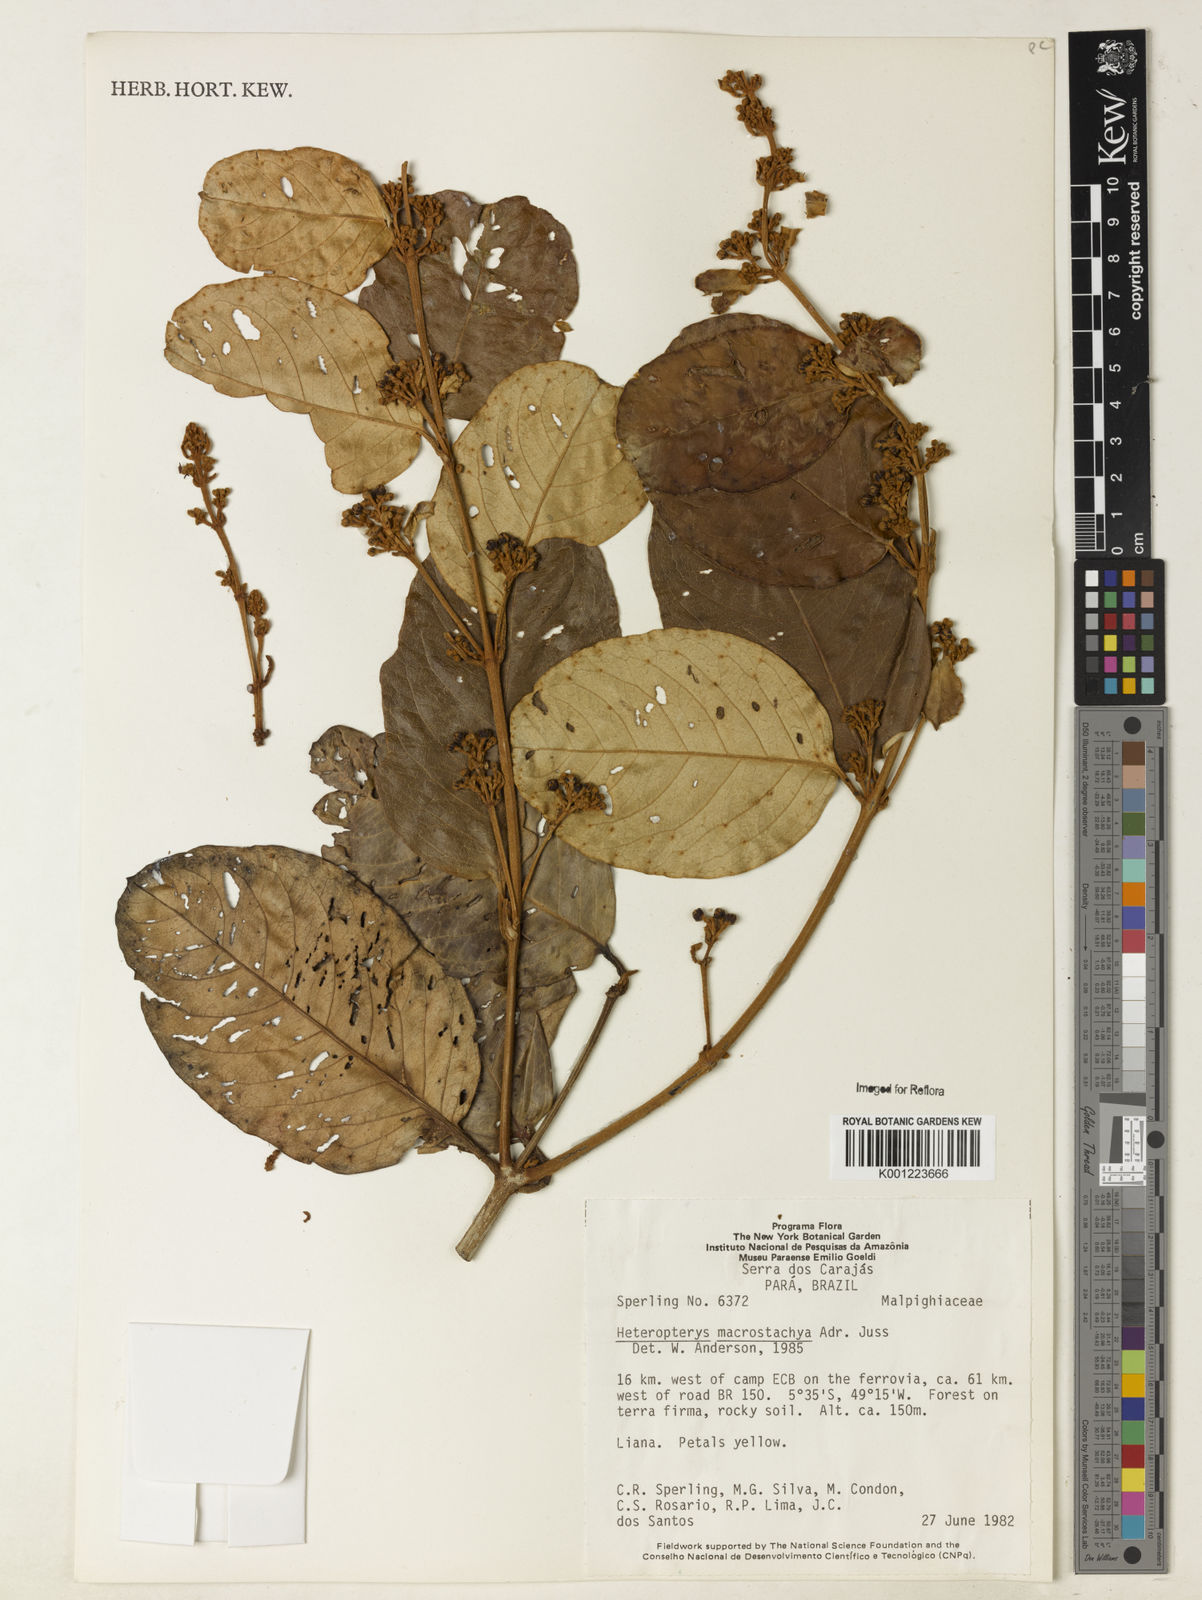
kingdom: Plantae
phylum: Tracheophyta
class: Magnoliopsida
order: Malpighiales
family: Malpighiaceae
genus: Heteropterys
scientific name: Heteropterys macrostachya
